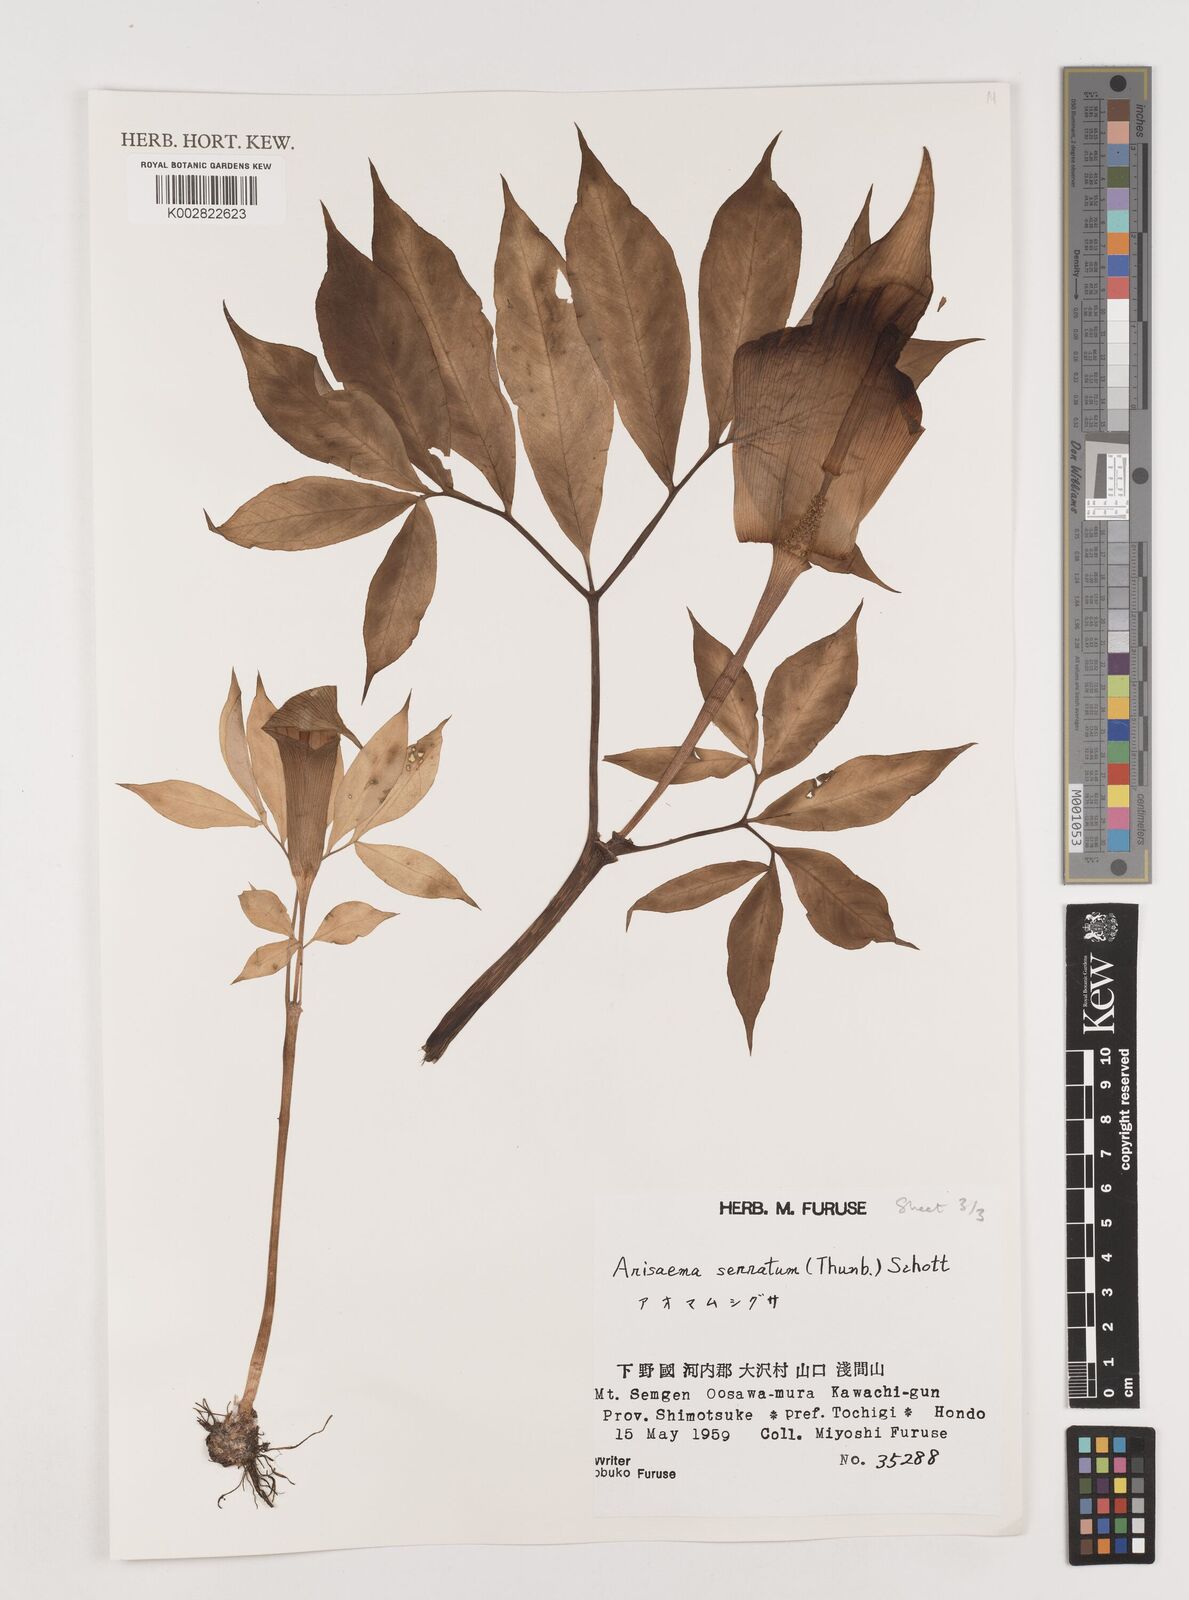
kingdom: Plantae
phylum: Tracheophyta
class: Liliopsida
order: Alismatales
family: Araceae
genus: Arisaema
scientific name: Arisaema serratum
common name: Japanese arisaema
